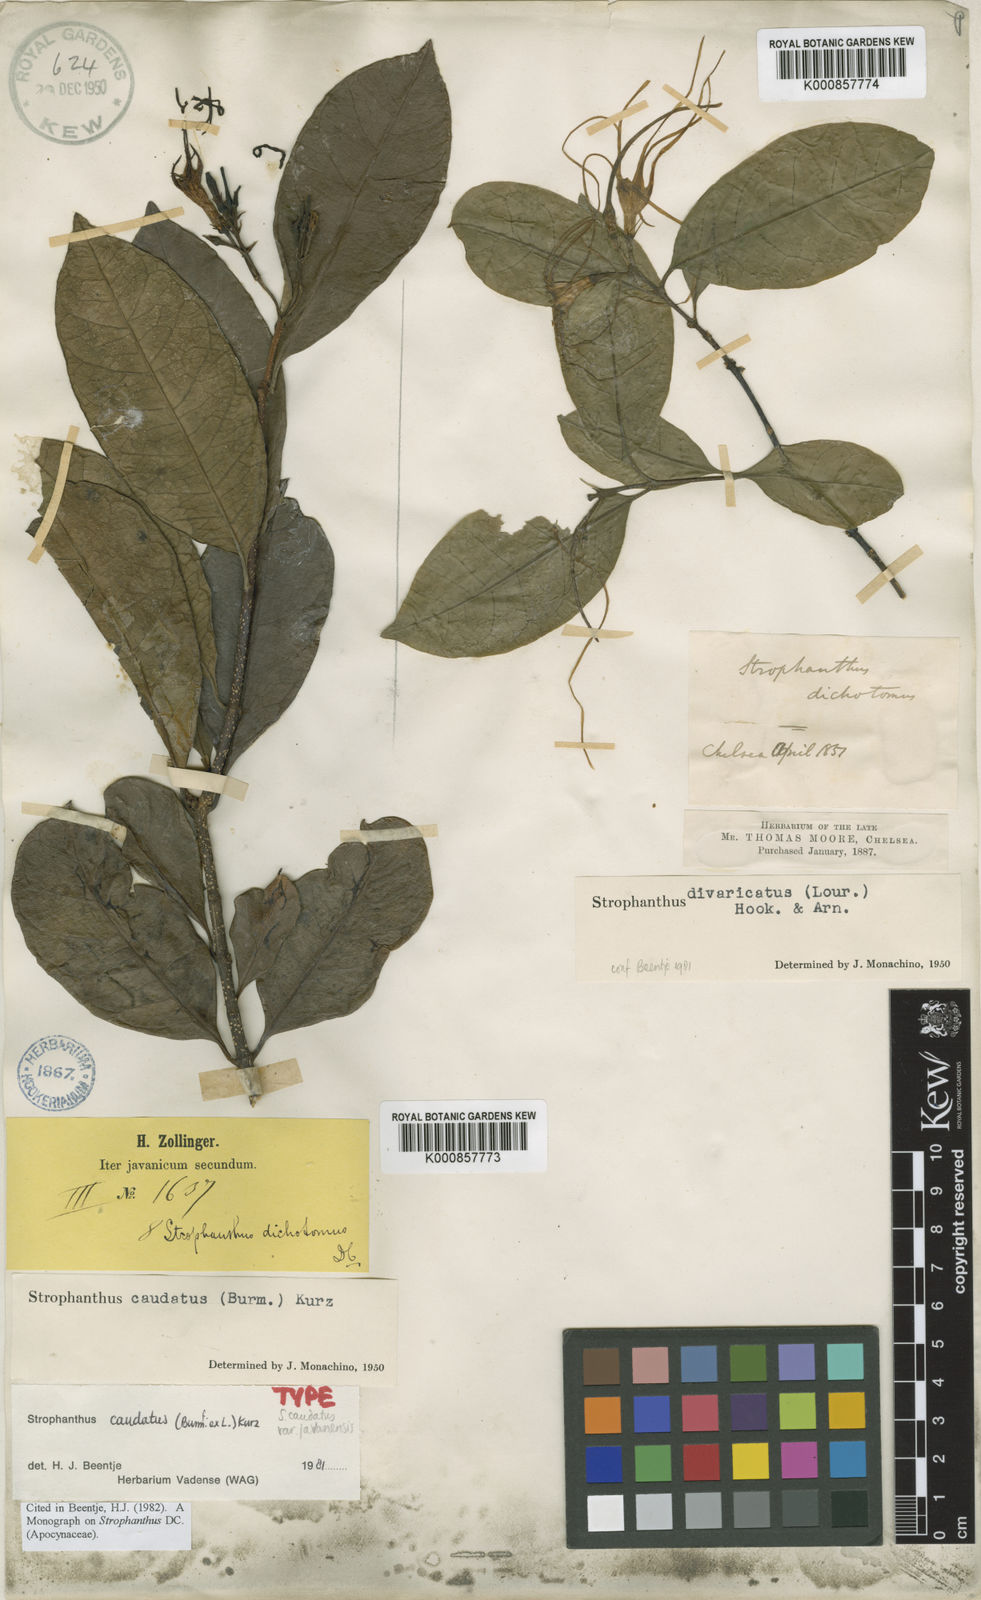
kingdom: Plantae
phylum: Tracheophyta
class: Magnoliopsida
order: Gentianales
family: Apocynaceae
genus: Strophanthus
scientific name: Strophanthus caudatus
